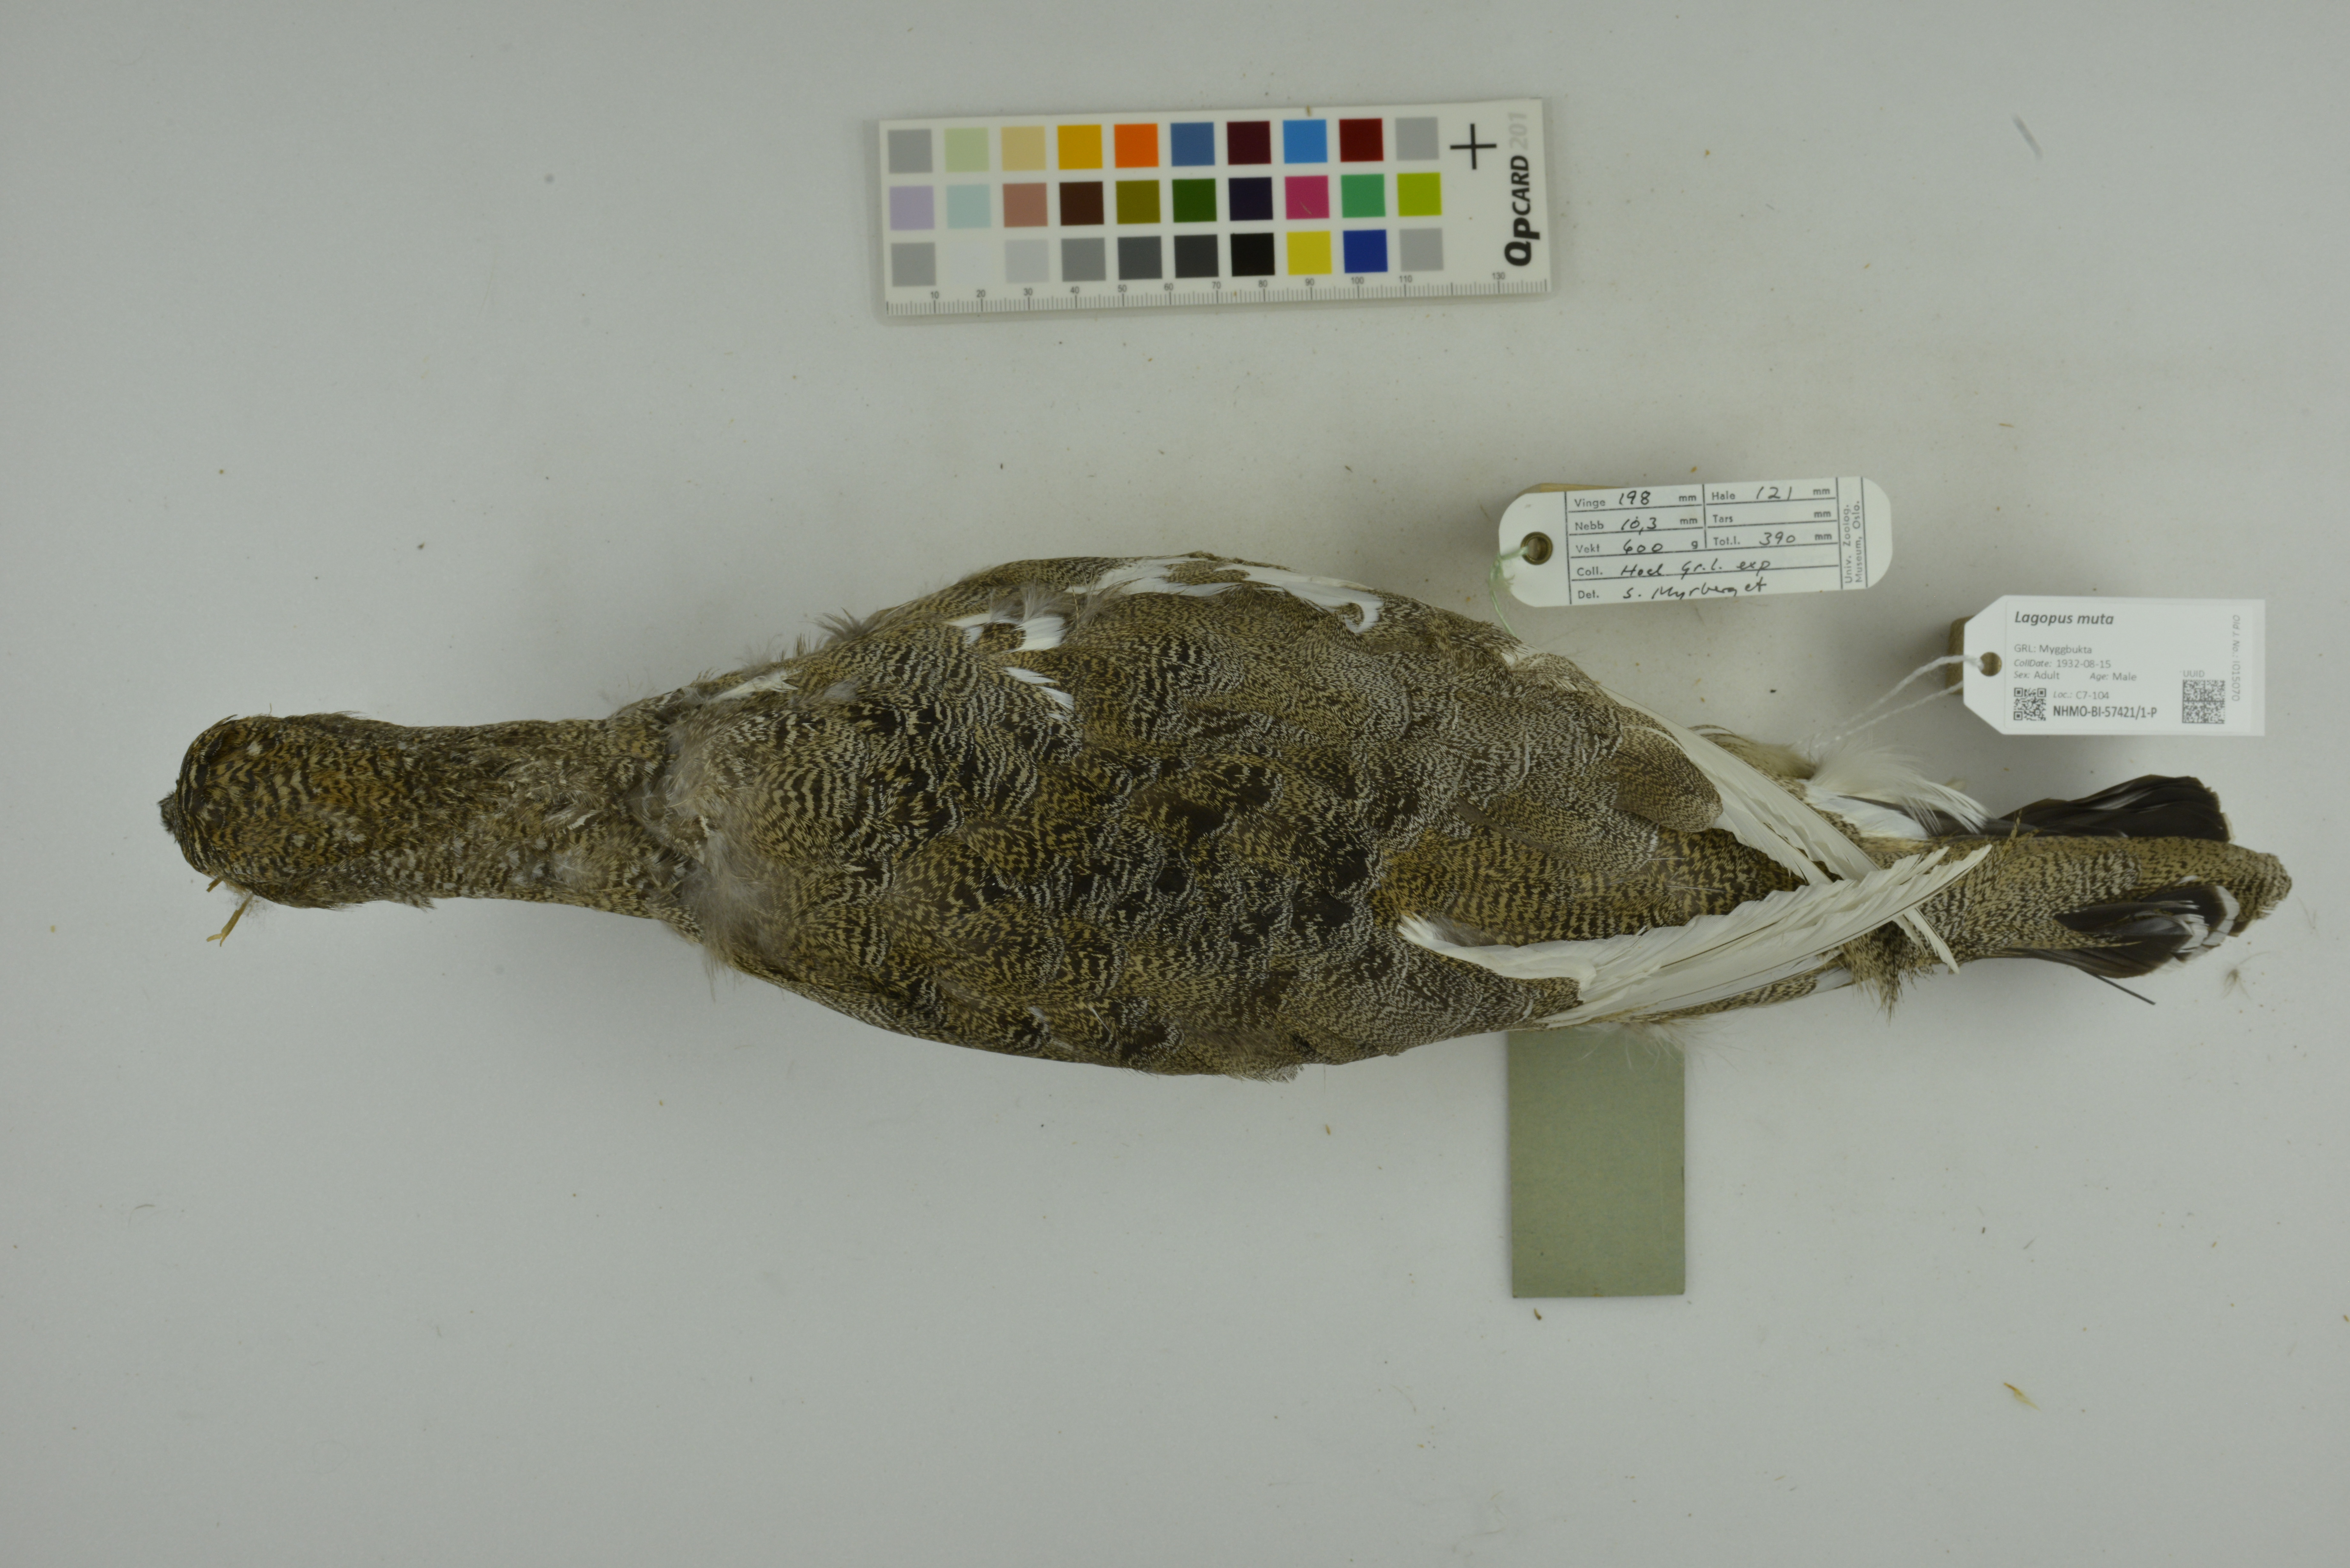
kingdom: Animalia
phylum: Chordata
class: Aves
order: Galliformes
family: Phasianidae
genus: Lagopus
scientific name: Lagopus muta
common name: Rock ptarmigan
